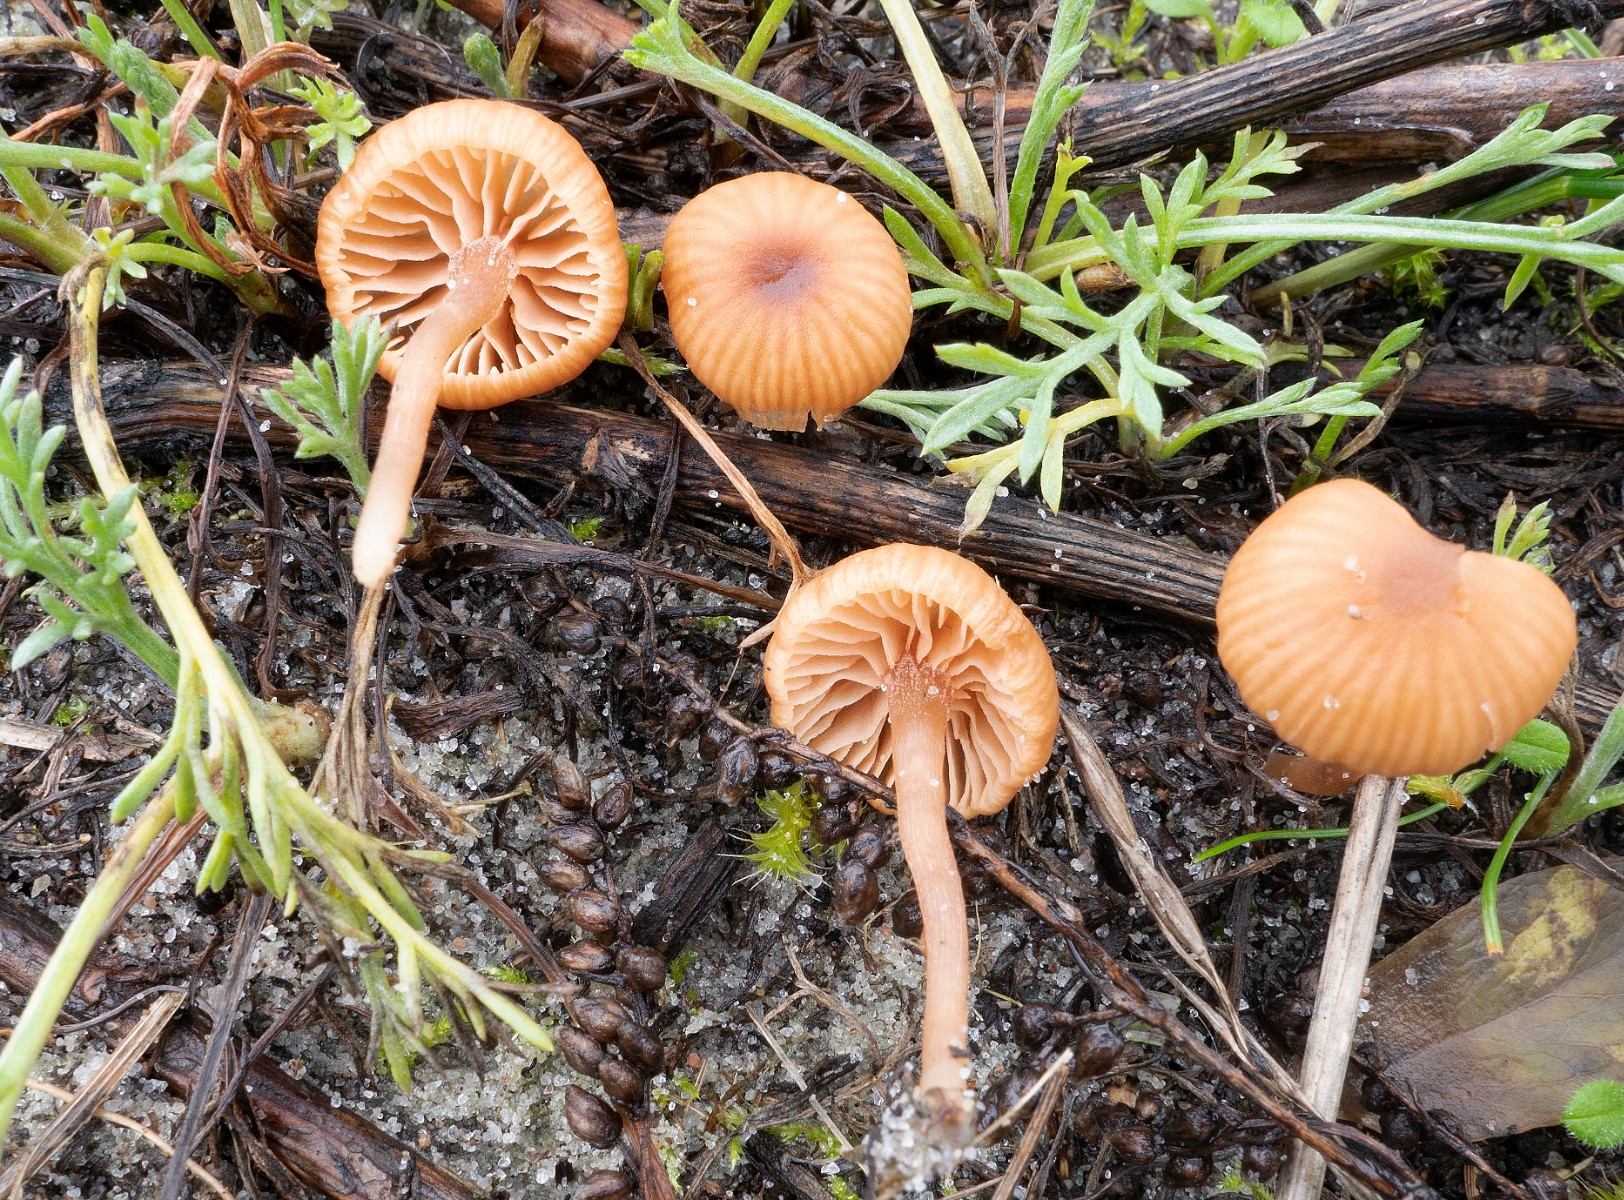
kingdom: Fungi
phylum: Basidiomycota
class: Agaricomycetes
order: Agaricales
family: Tricholomataceae
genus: Omphalina
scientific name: Omphalina pyxidata
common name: rødbrun navlehat
